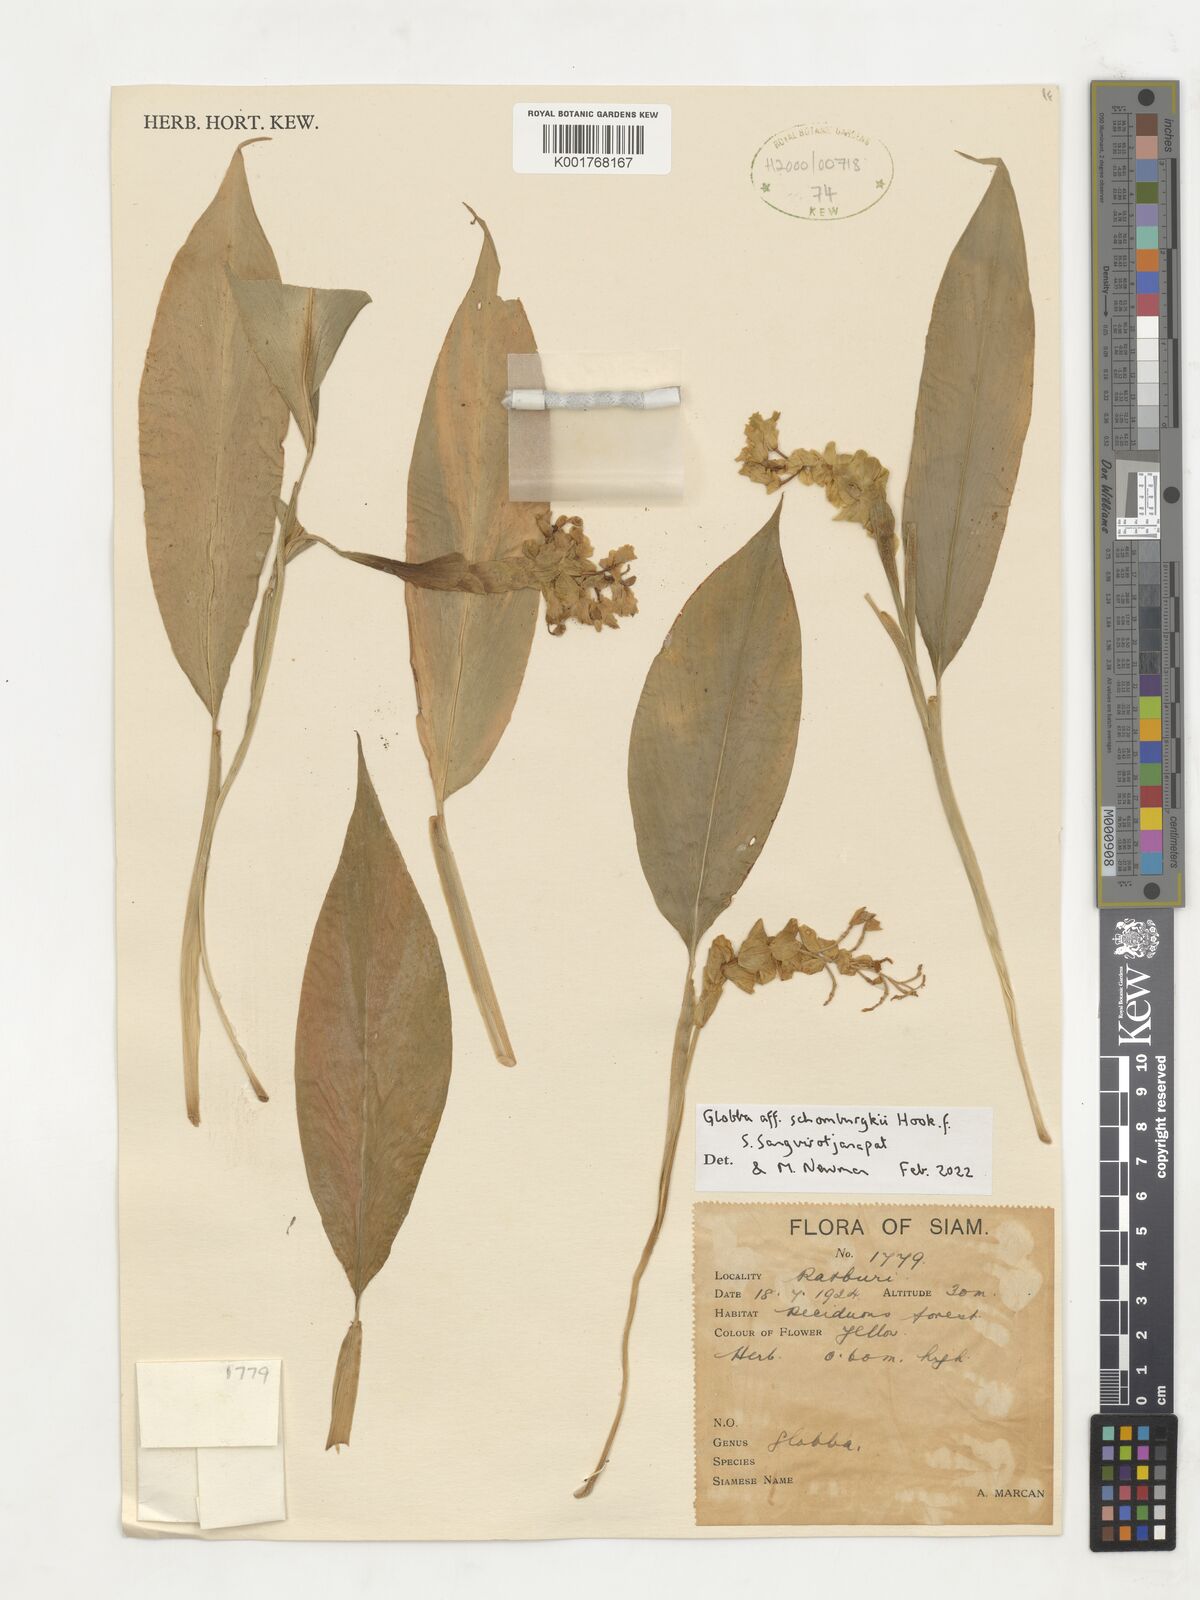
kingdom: Plantae
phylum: Tracheophyta
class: Liliopsida
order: Zingiberales
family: Zingiberaceae
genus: Globba
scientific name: Globba schomburgkii
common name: Dancing girl ginger
